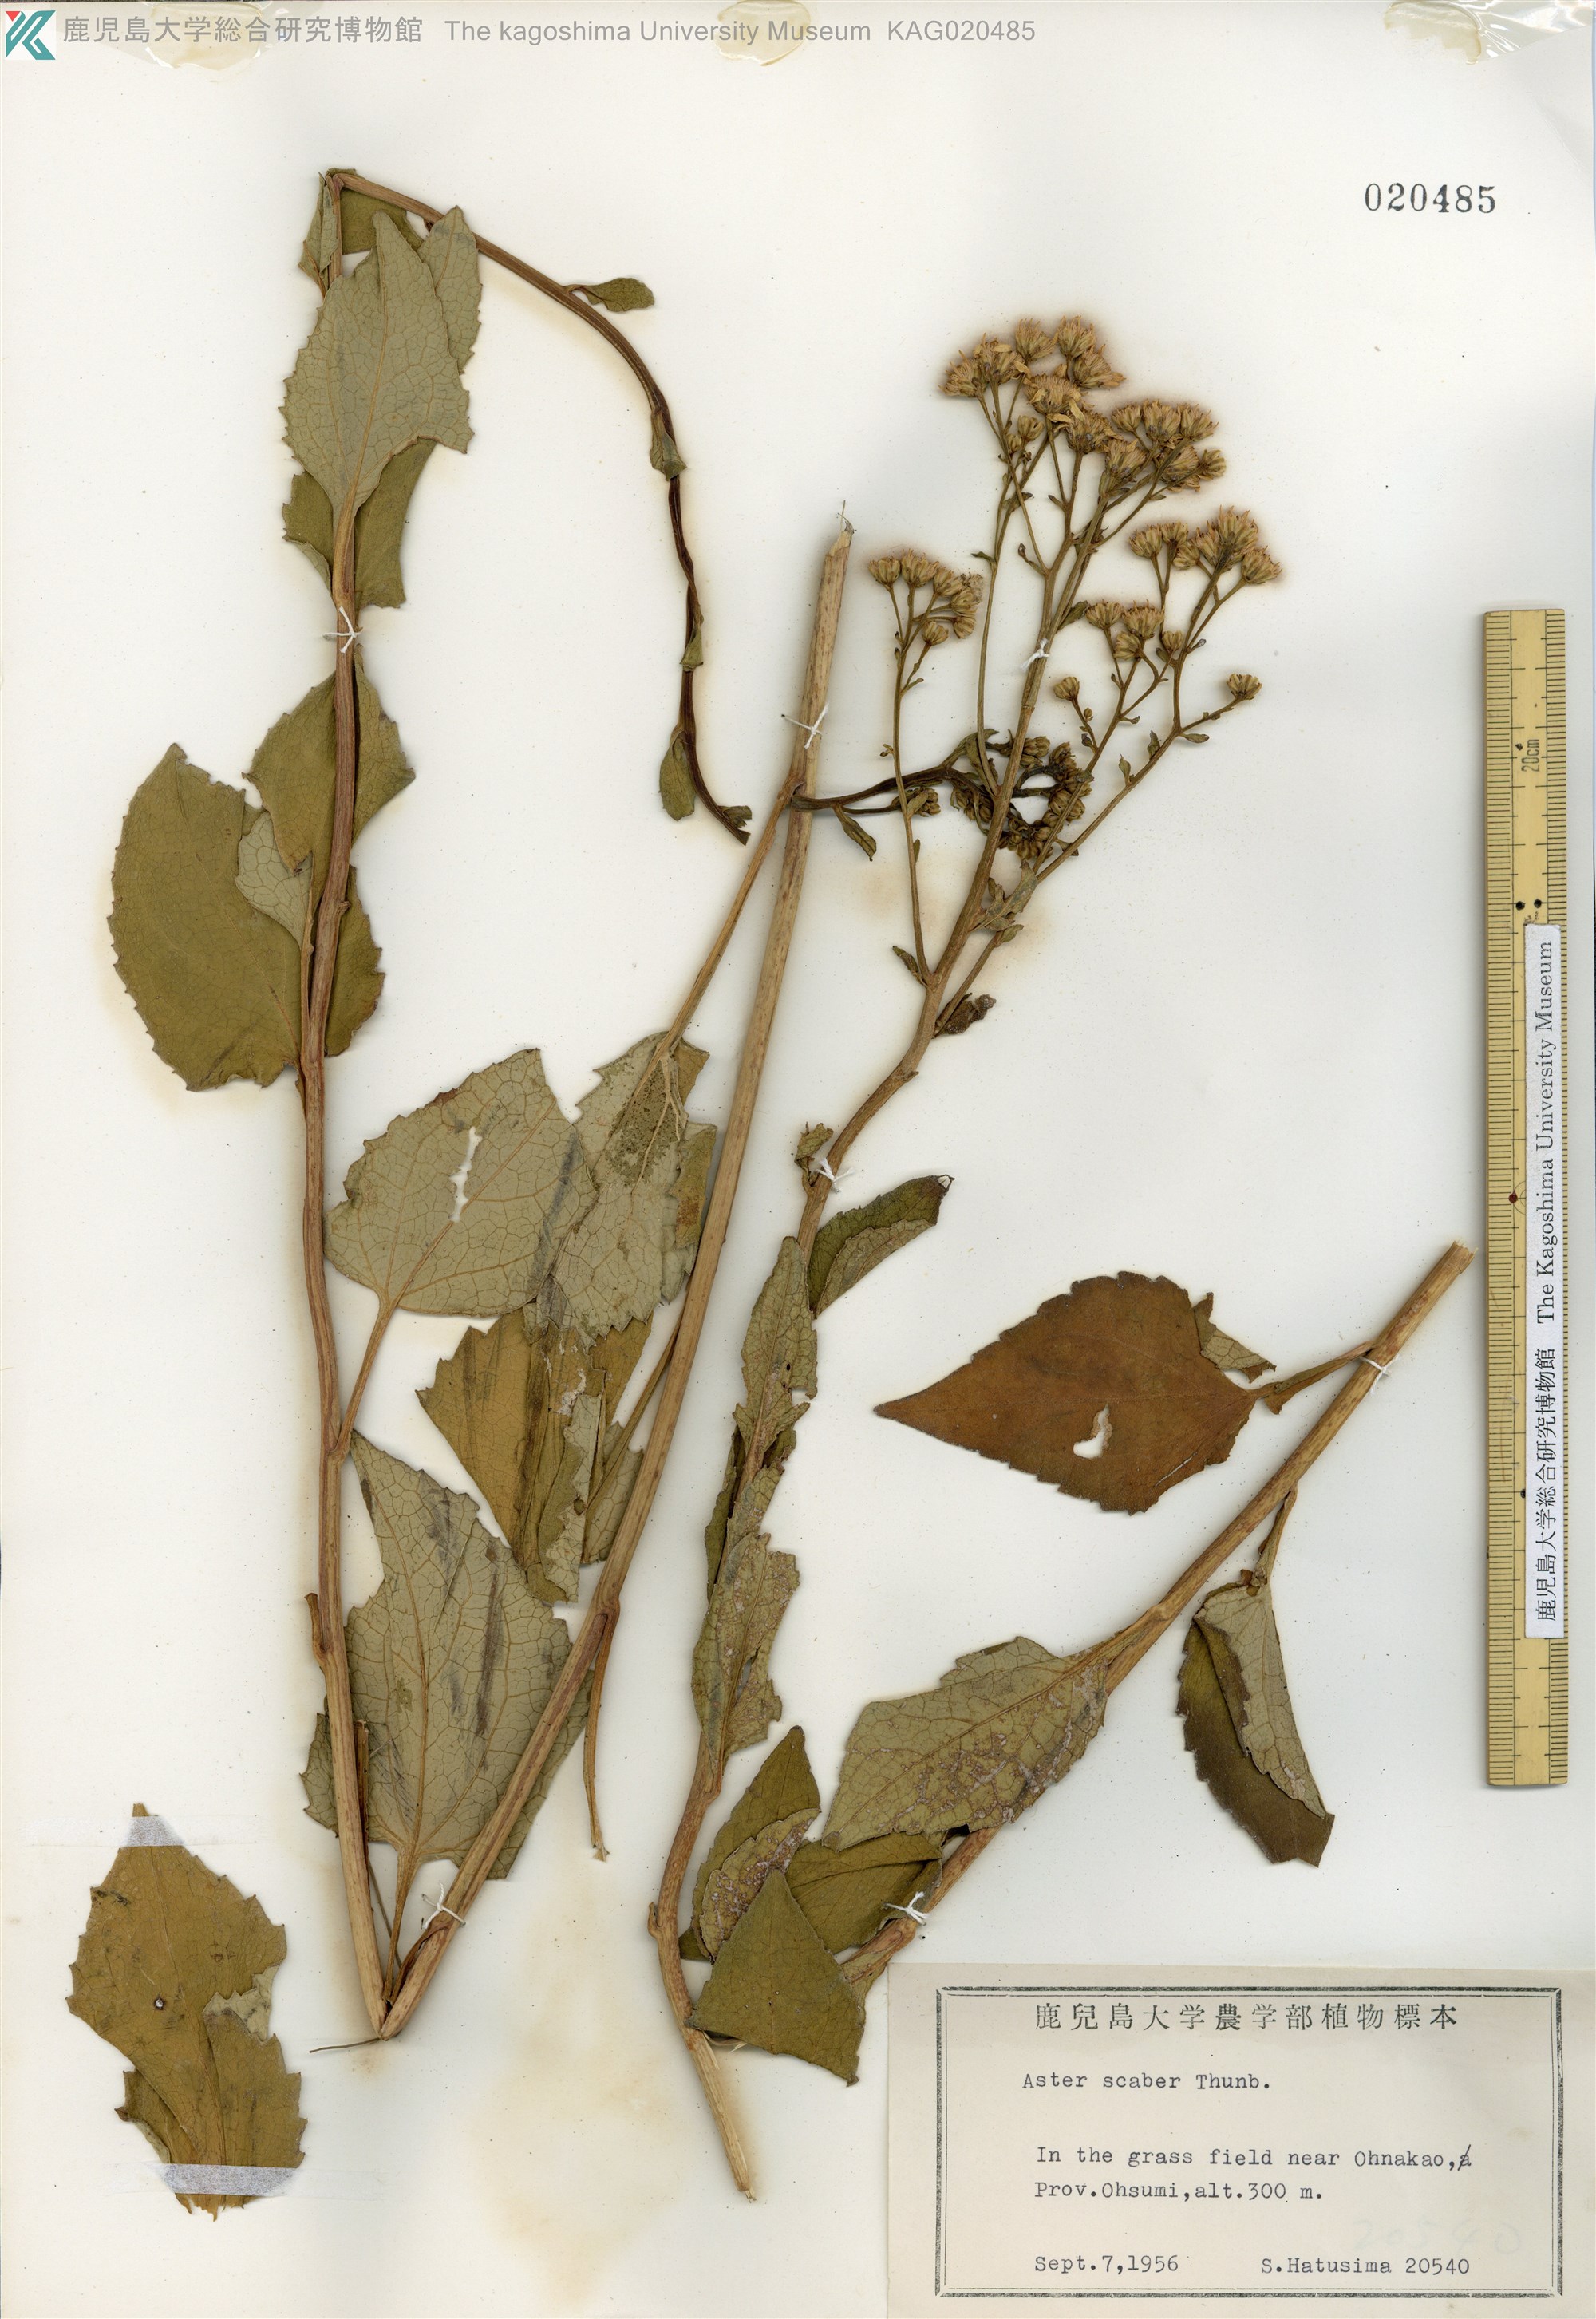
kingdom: Plantae
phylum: Tracheophyta
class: Magnoliopsida
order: Asterales
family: Asteraceae
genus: Cardiagyris
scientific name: Cardiagyris scabra
